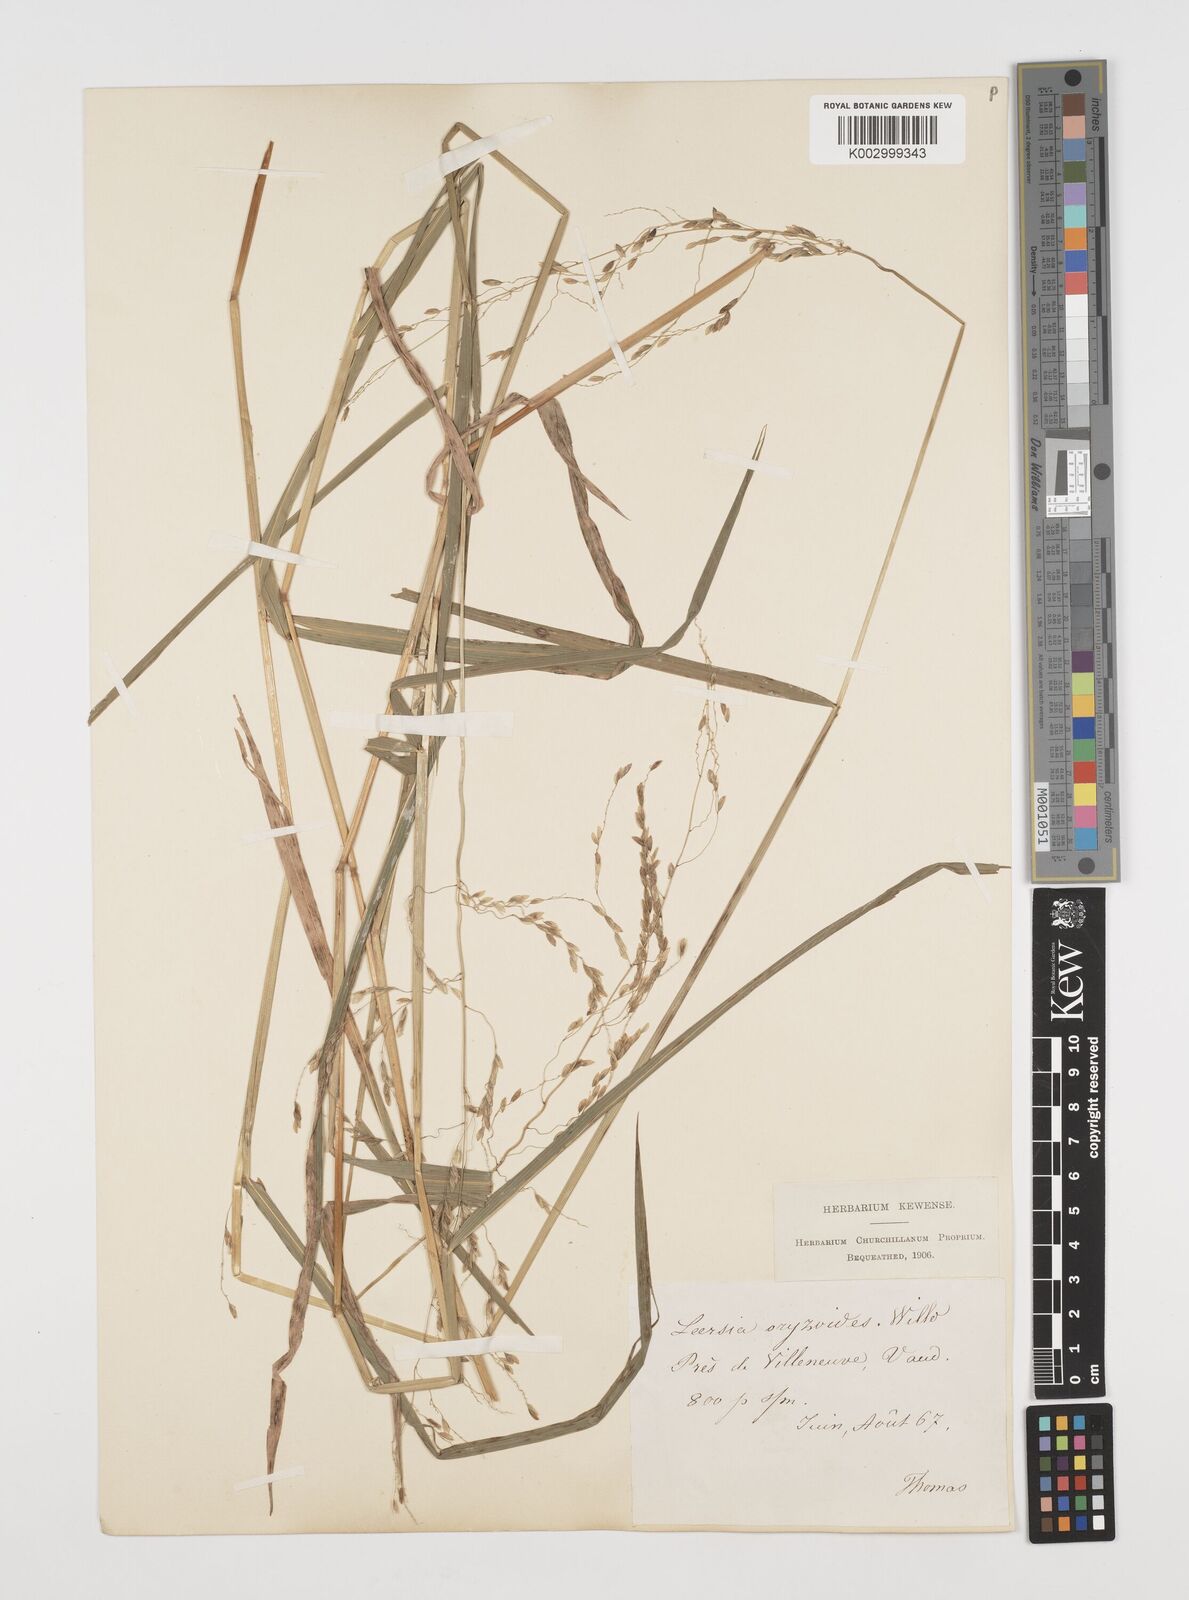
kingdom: Plantae
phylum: Tracheophyta
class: Liliopsida
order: Poales
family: Poaceae
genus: Leersia
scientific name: Leersia oryzoides
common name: Cut-grass
